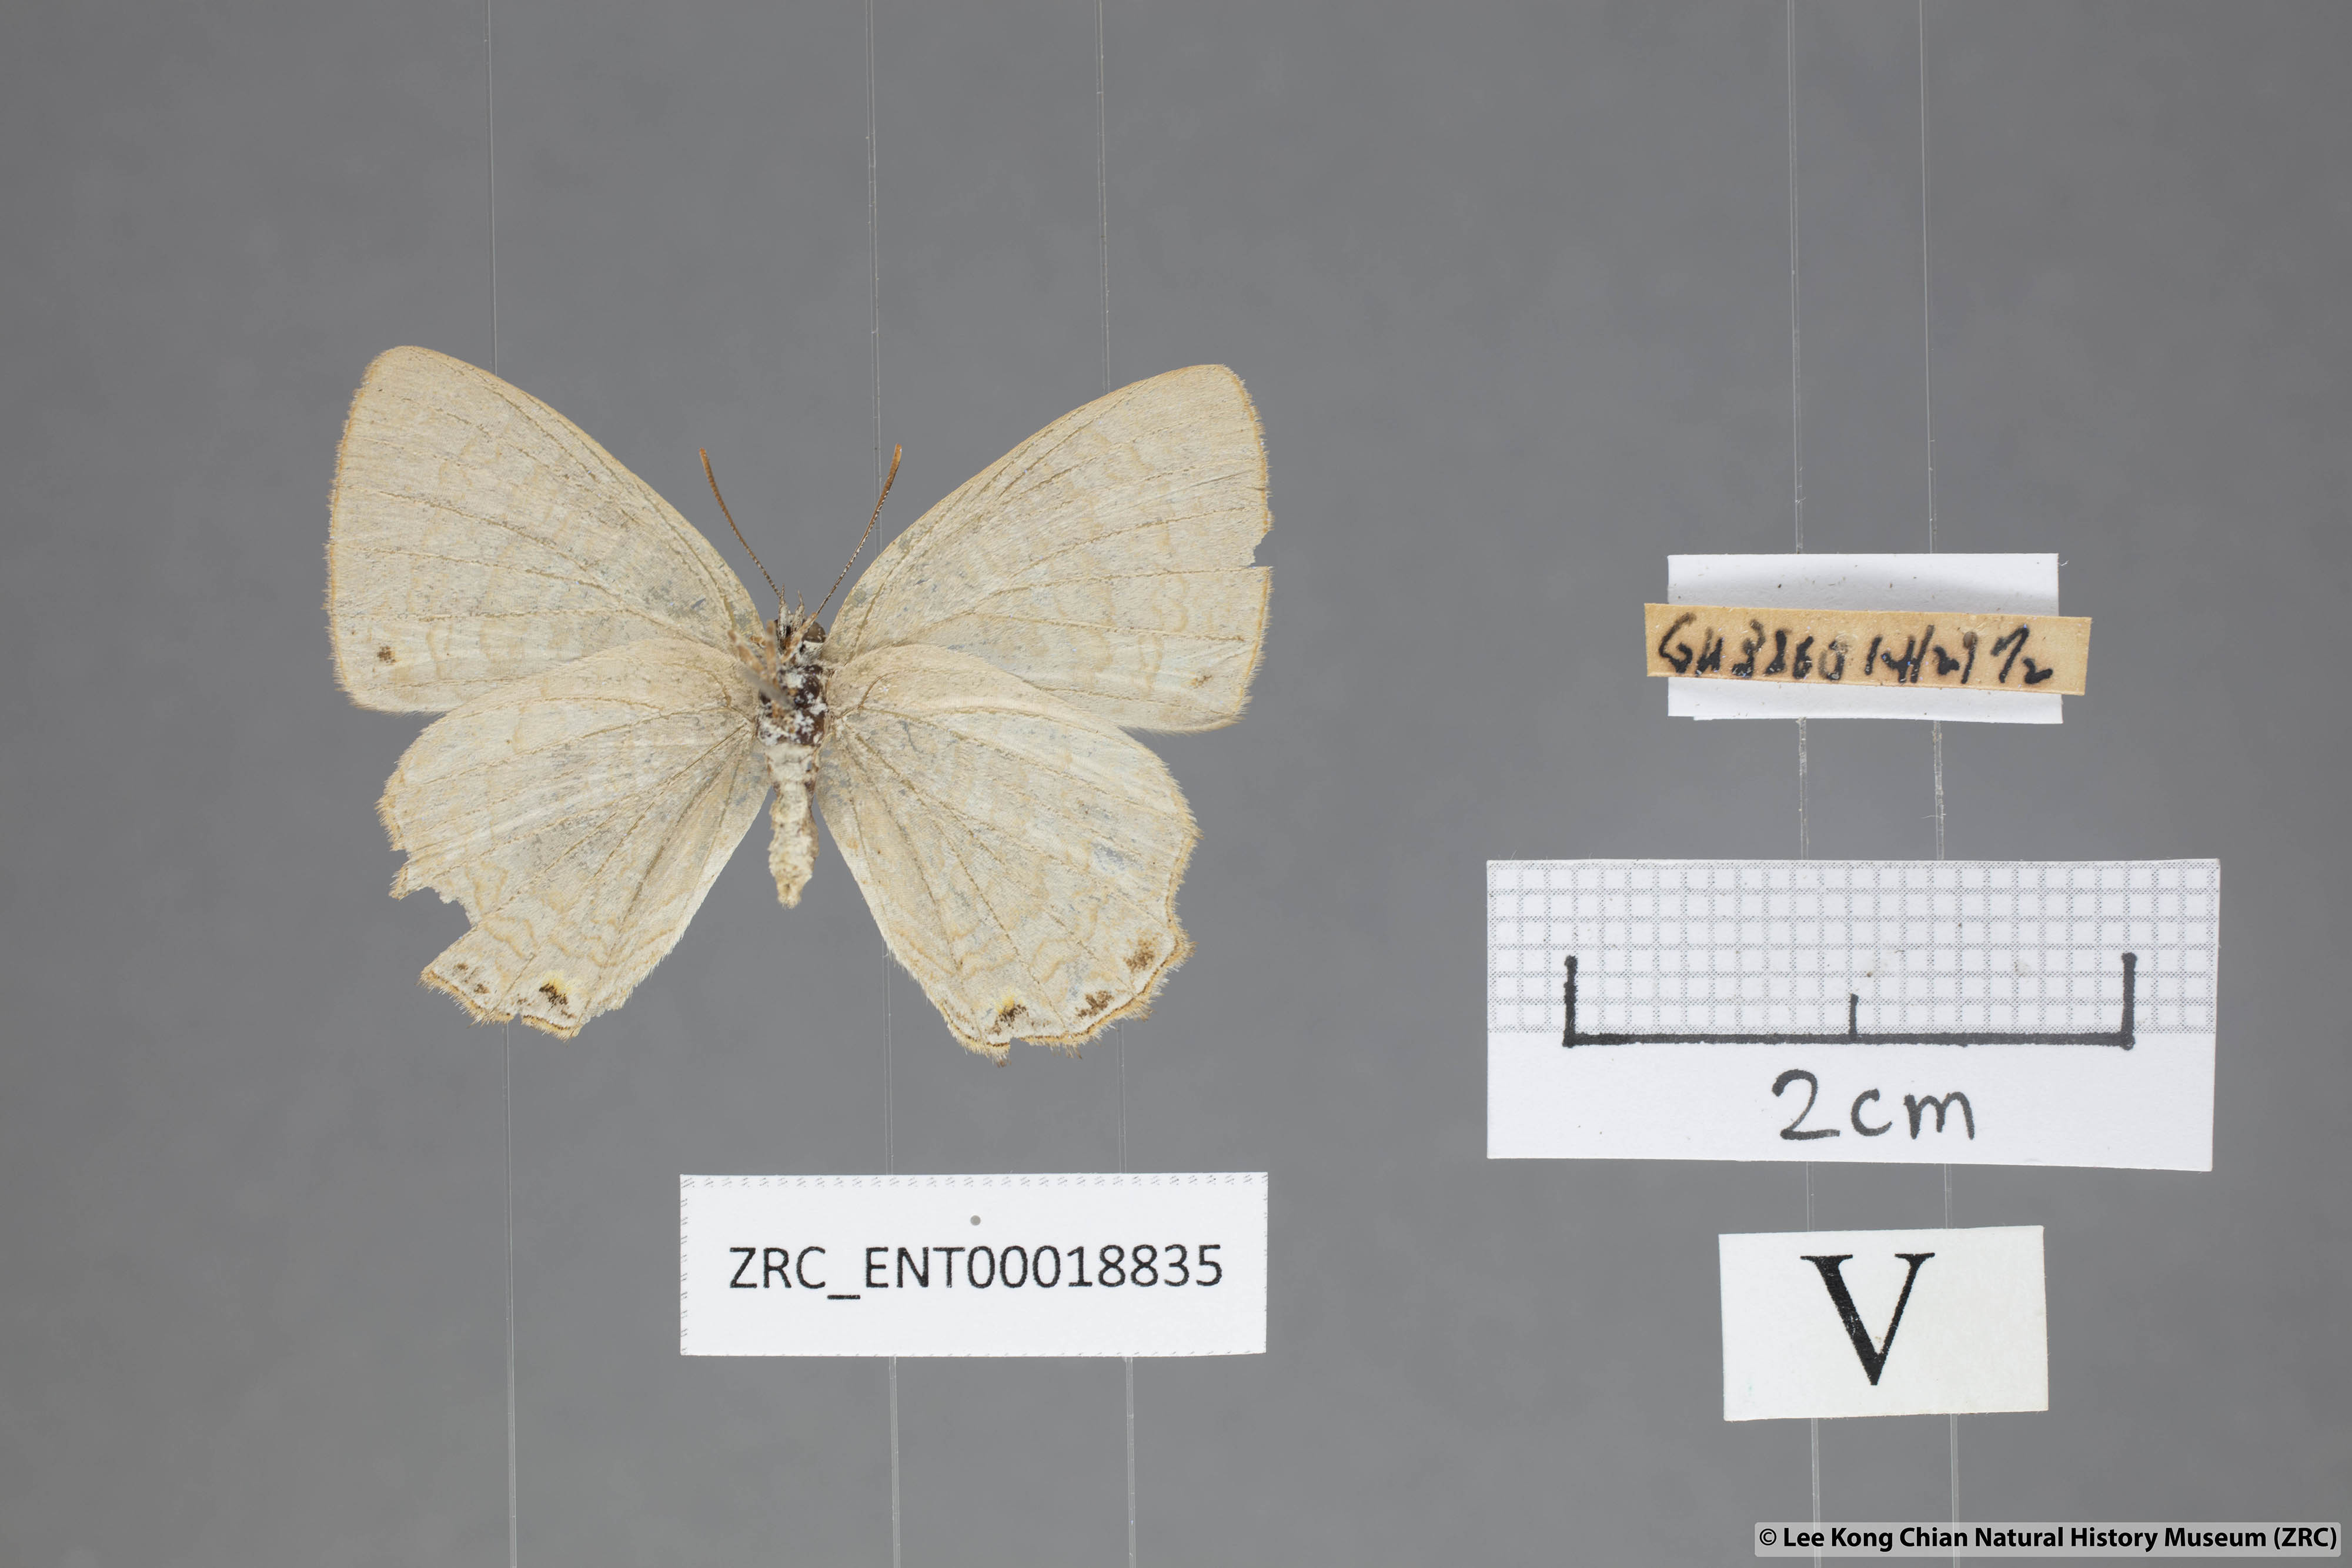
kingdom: Animalia
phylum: Arthropoda
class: Insecta
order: Lepidoptera
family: Lycaenidae
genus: Poritia
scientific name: Poritia promula
